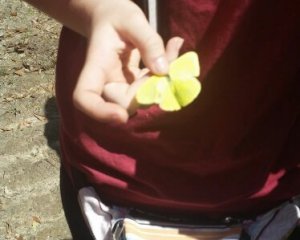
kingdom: Animalia
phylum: Arthropoda
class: Insecta
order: Lepidoptera
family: Pieridae
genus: Colias
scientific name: Colias philodice
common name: Clouded Sulphur
